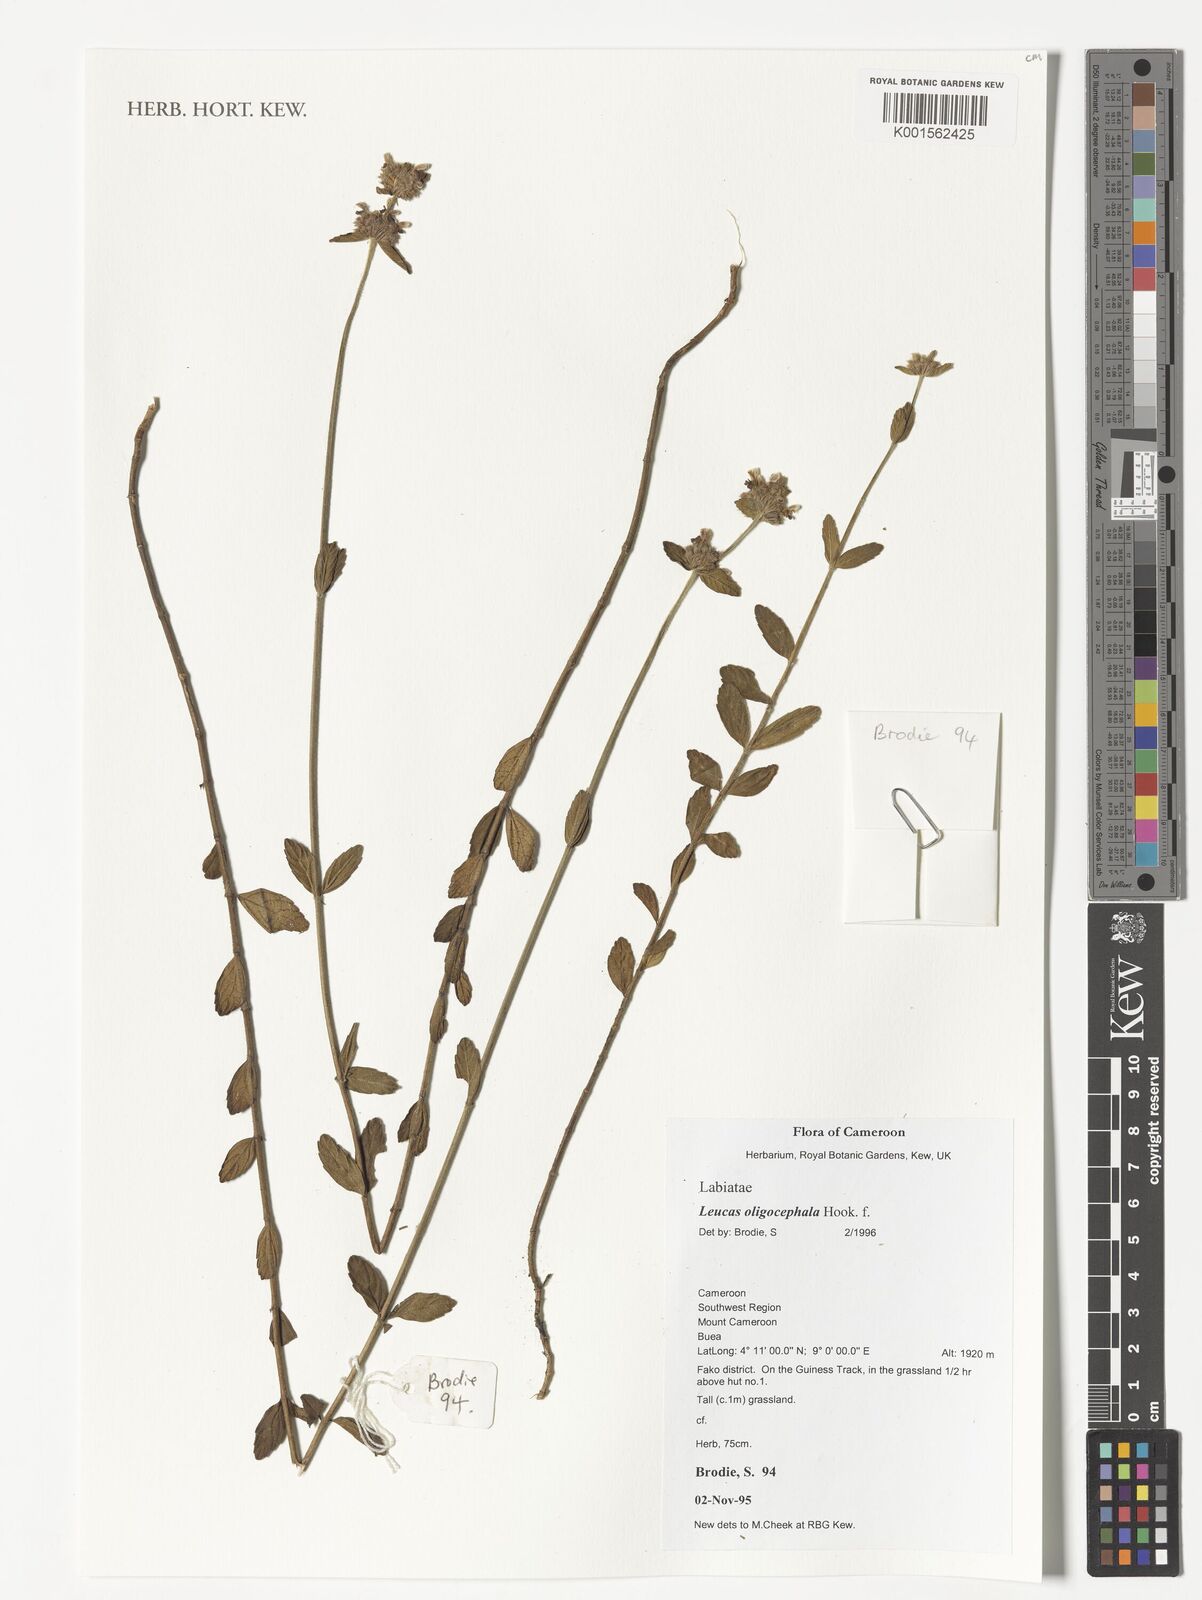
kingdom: Plantae
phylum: Tracheophyta
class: Magnoliopsida
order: Lamiales
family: Lamiaceae
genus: Leucas
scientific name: Leucas oligocephala
